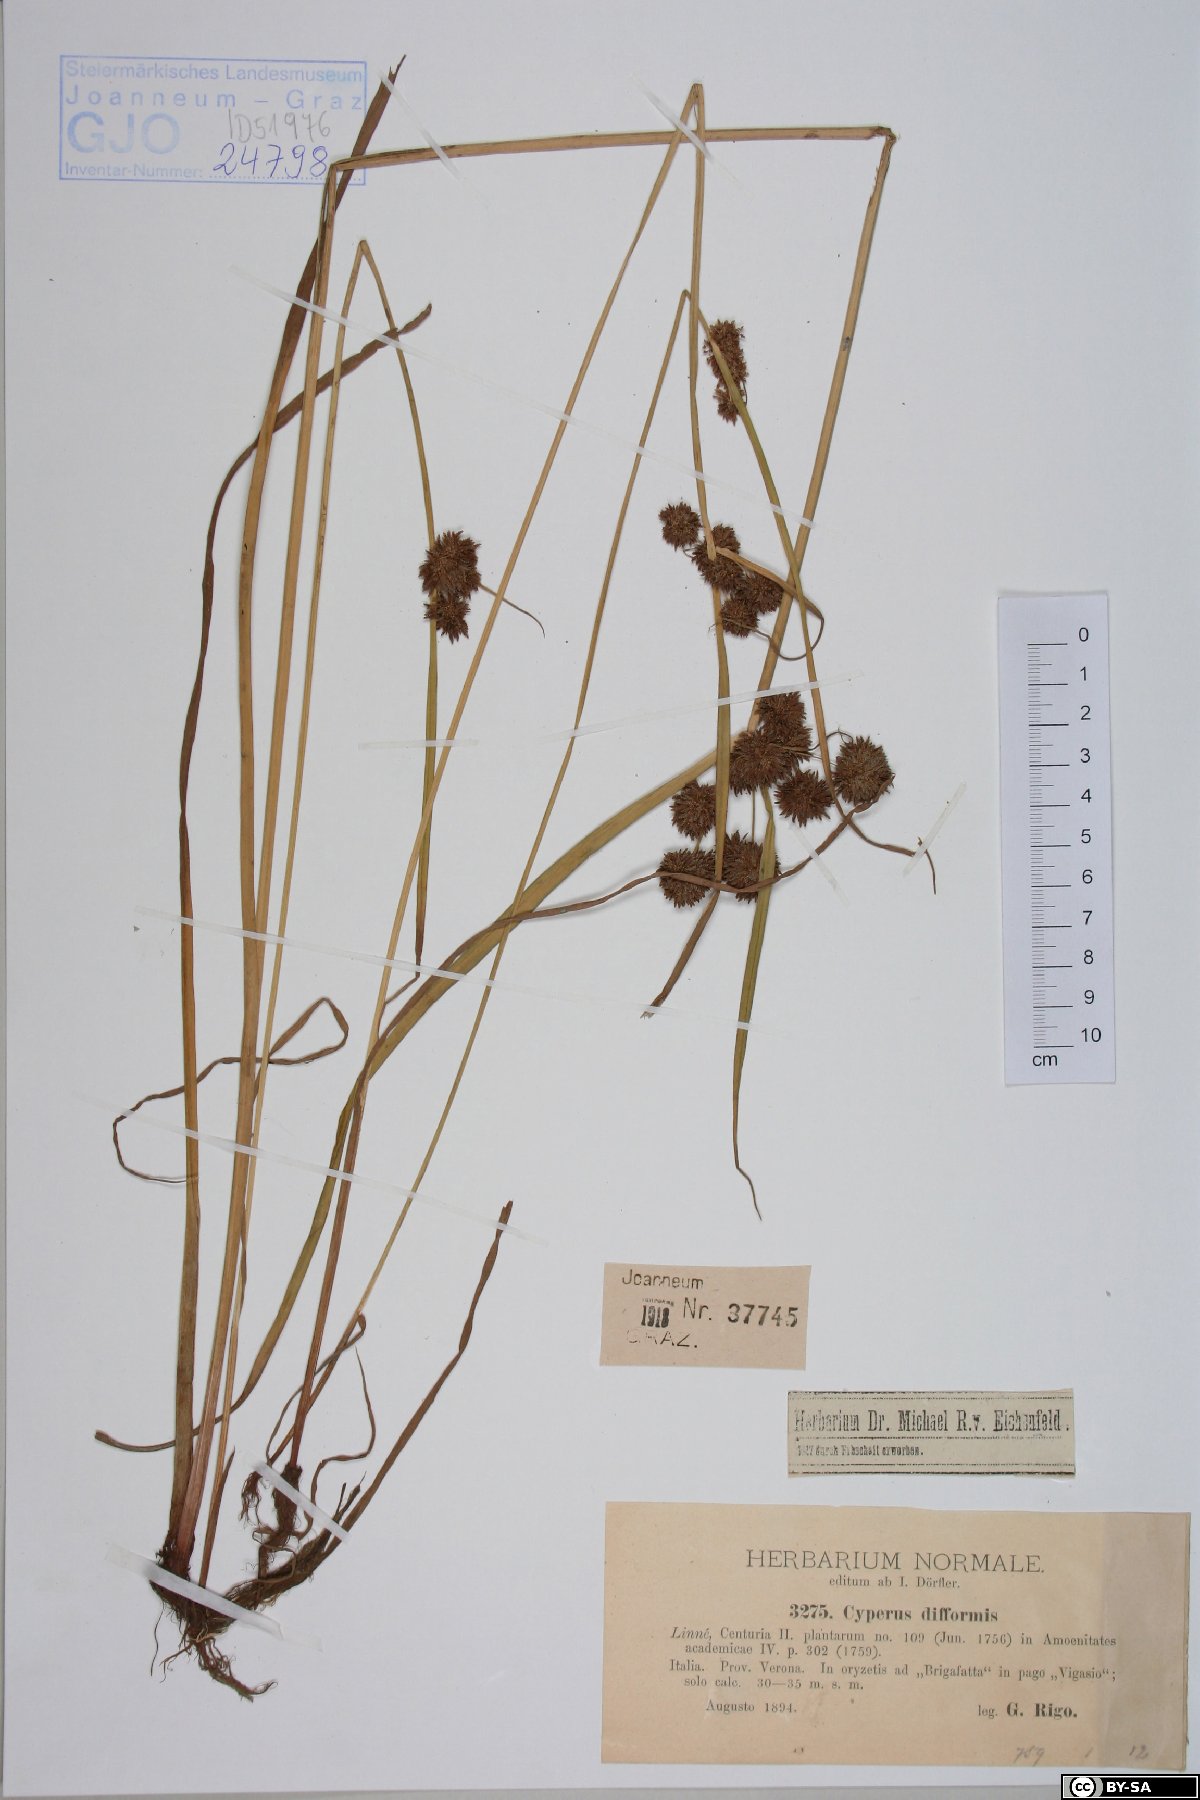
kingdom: Plantae
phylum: Tracheophyta
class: Liliopsida
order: Poales
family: Cyperaceae
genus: Cyperus
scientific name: Cyperus difformis
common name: Variable flatsedge
